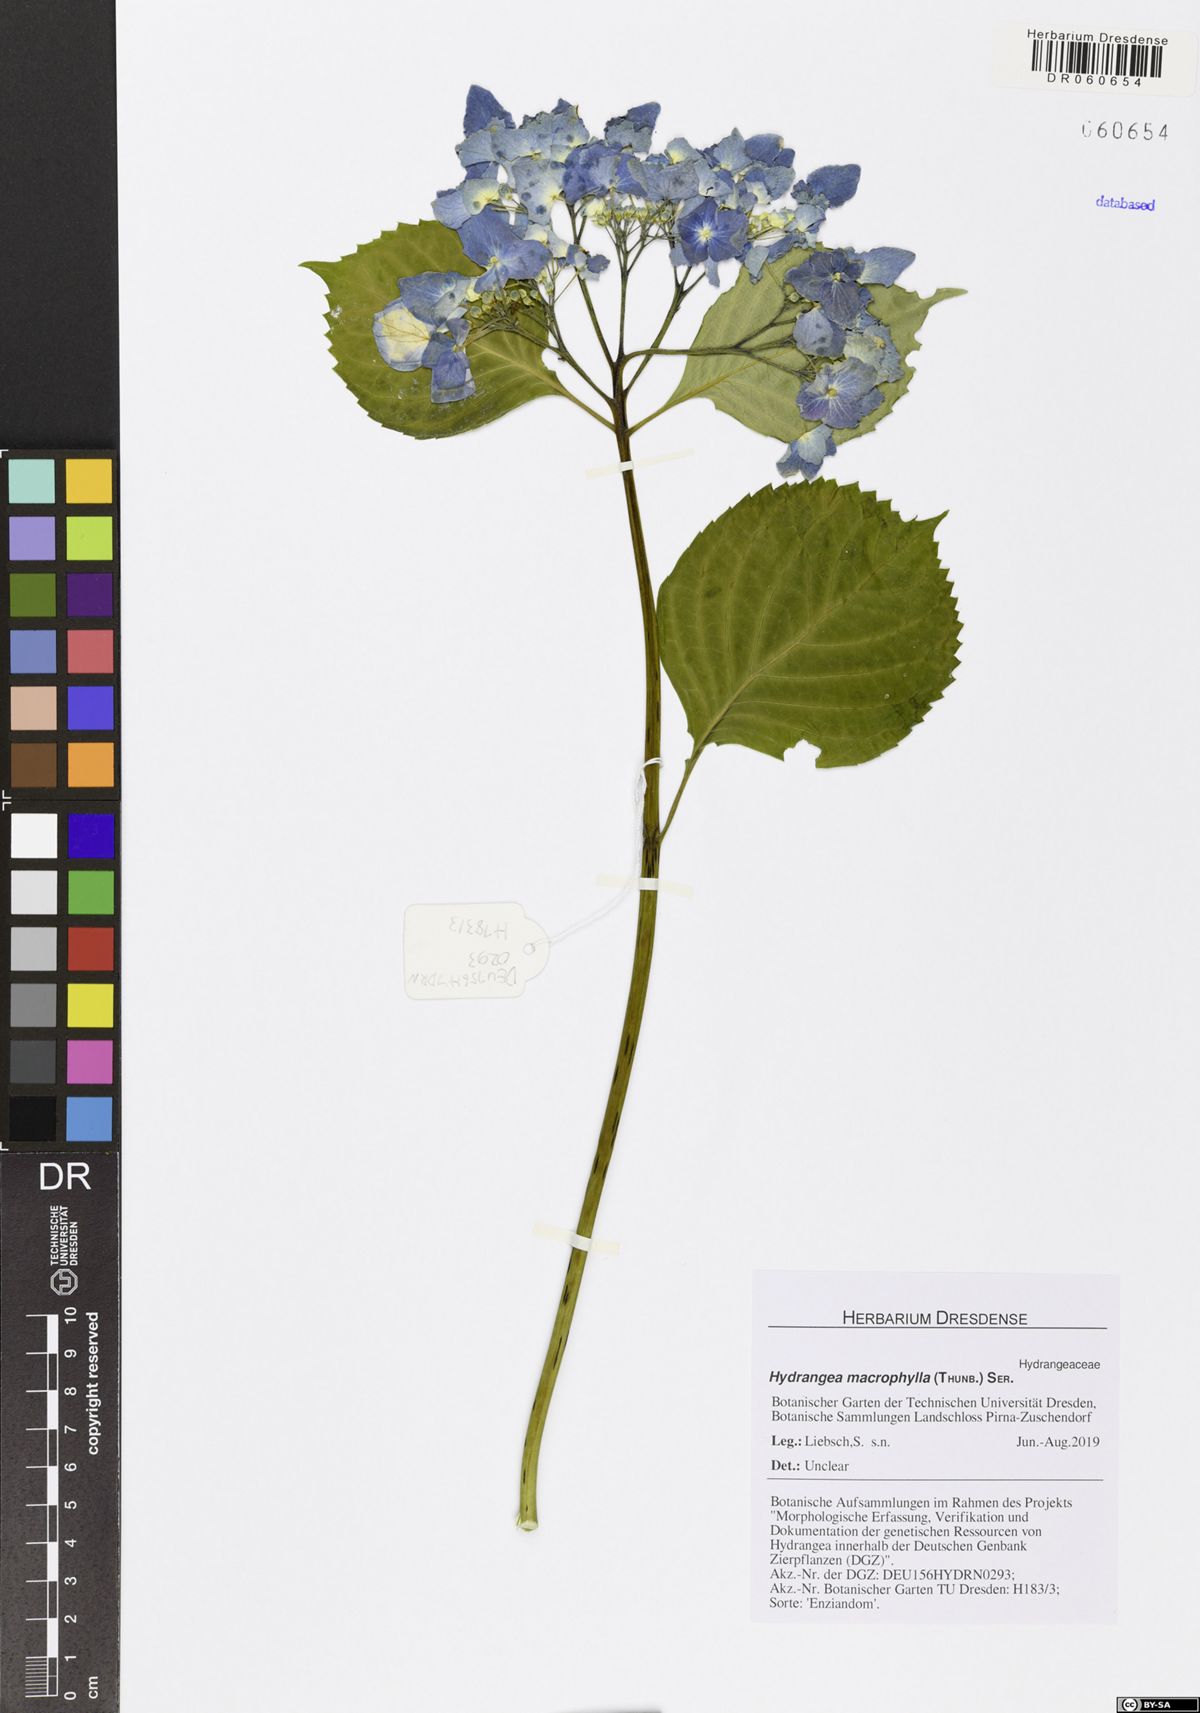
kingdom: Plantae
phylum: Tracheophyta
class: Magnoliopsida
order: Cornales
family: Hydrangeaceae
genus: Hydrangea
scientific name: Hydrangea macrophylla
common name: Hydrangea
